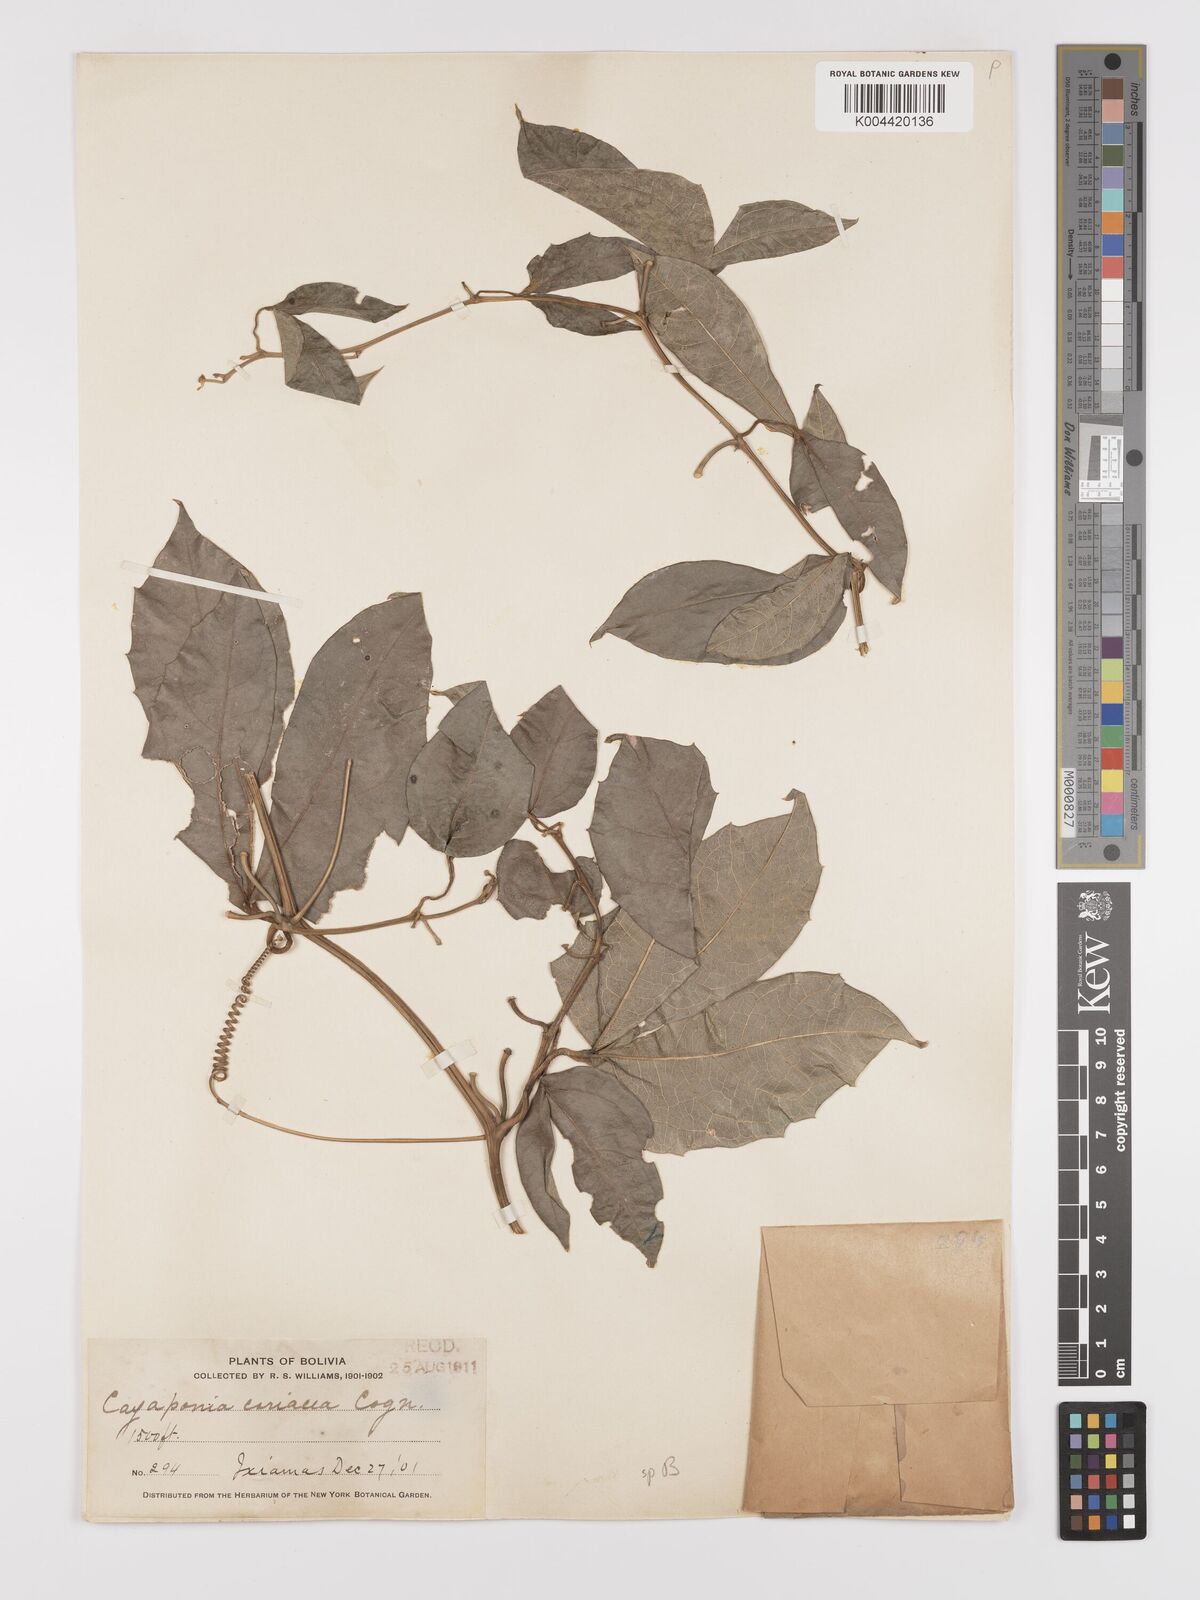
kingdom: Plantae
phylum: Tracheophyta
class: Magnoliopsida
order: Cucurbitales
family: Cucurbitaceae
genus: Cayaponia
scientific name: Cayaponia tubulosa
